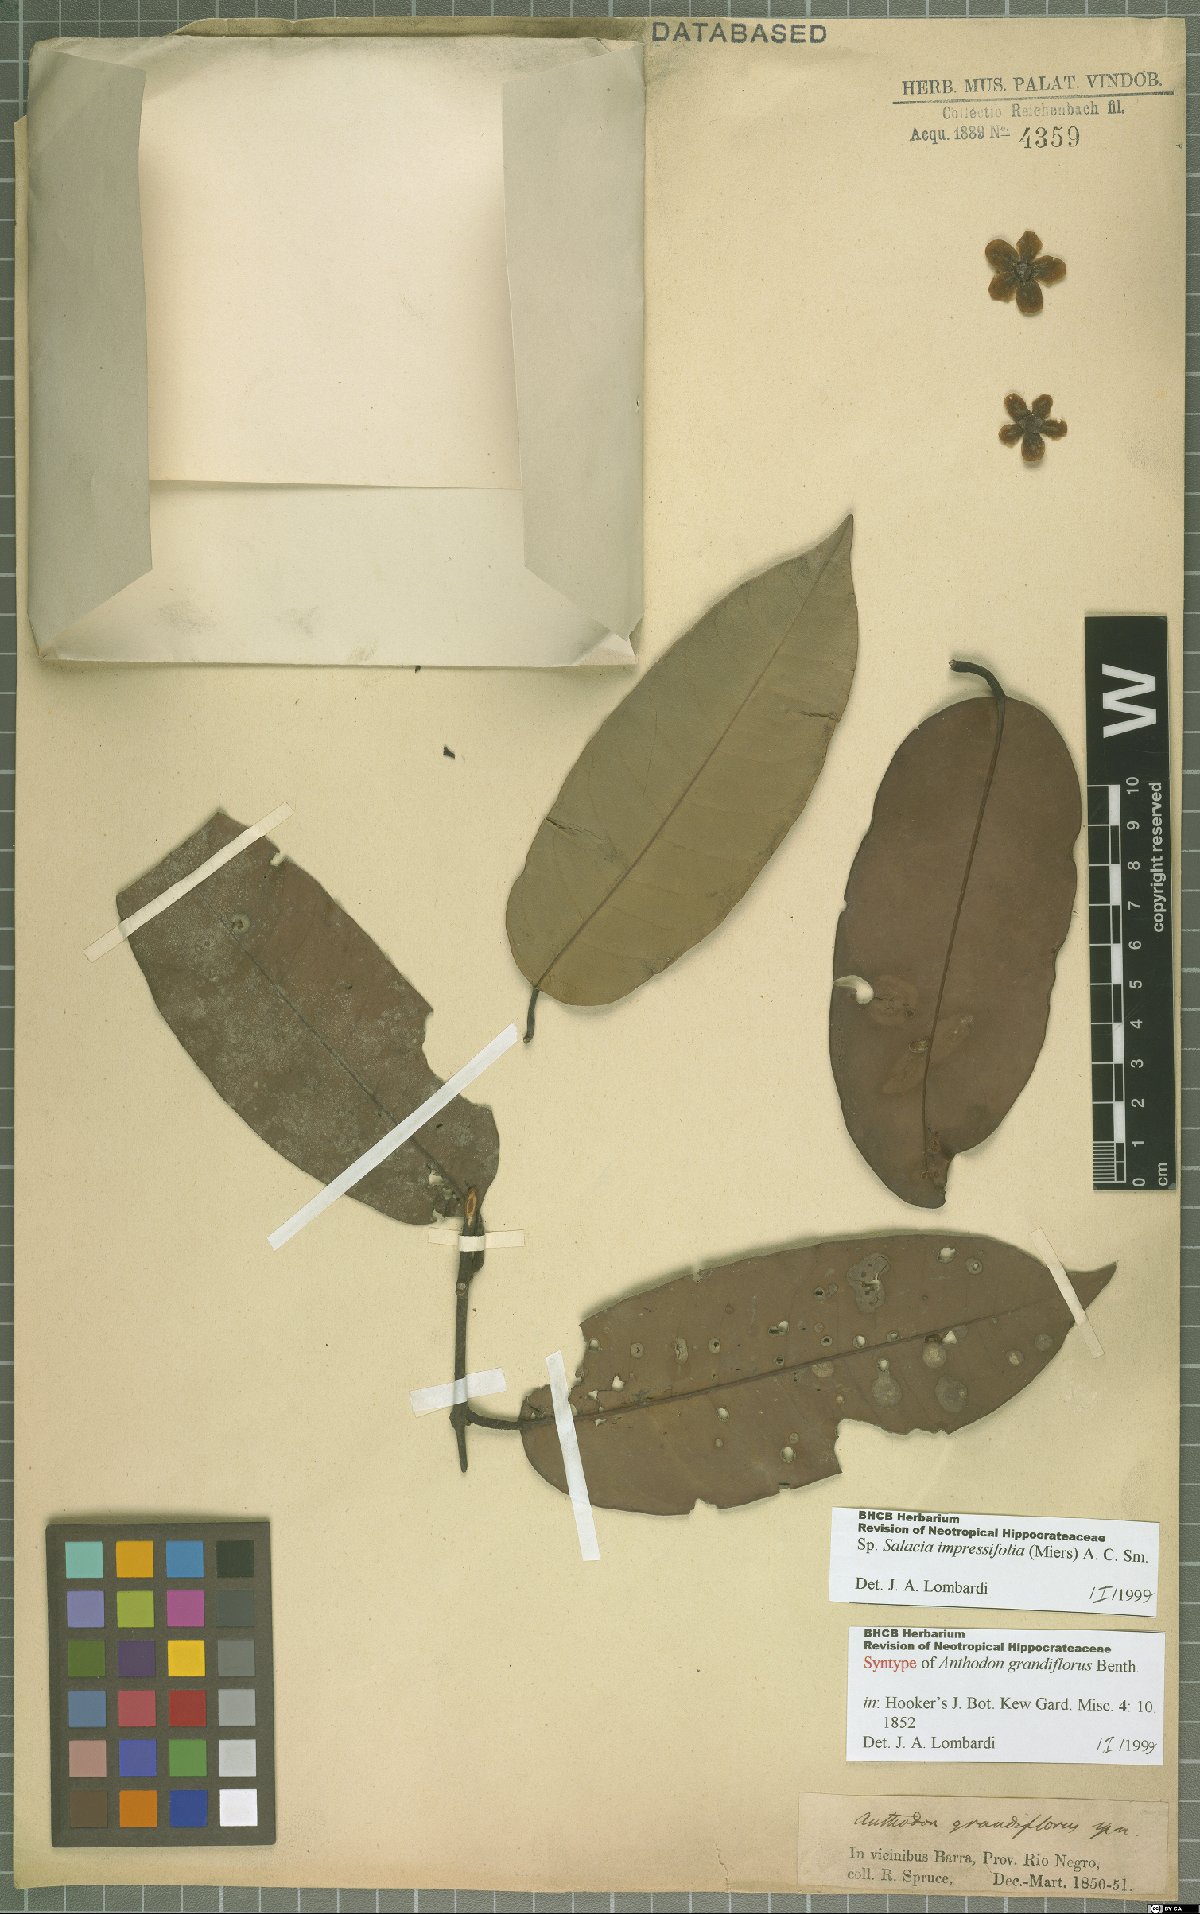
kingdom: Plantae
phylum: Tracheophyta
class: Magnoliopsida
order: Celastrales
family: Celastraceae
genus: Salacia
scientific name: Salacia impressifolia
